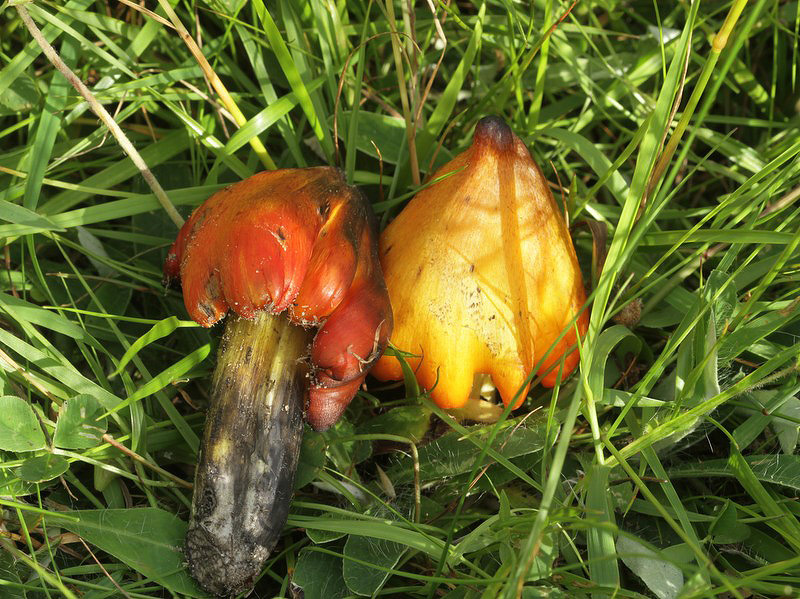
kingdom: Fungi
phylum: Basidiomycota
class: Agaricomycetes
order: Agaricales
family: Hygrophoraceae
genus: Hygrocybe
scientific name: Hygrocybe conica
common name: kegle-vokshat
